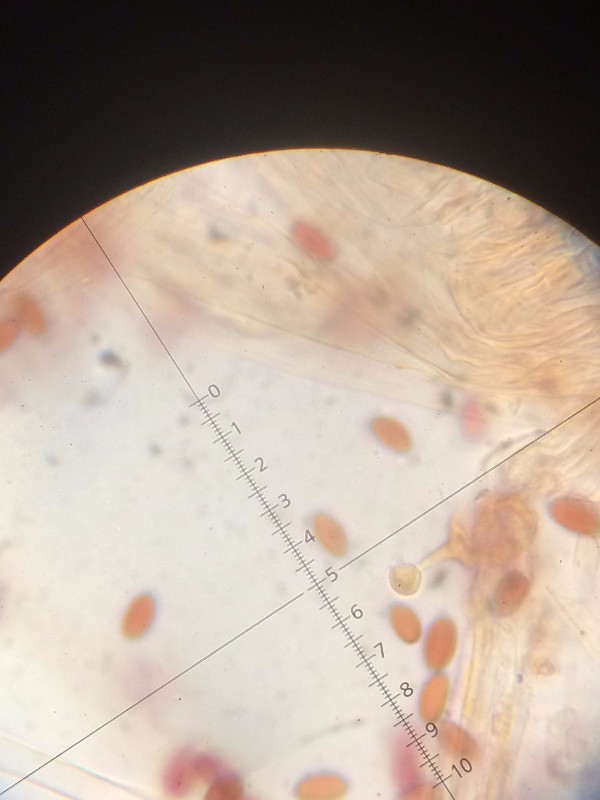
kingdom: Fungi
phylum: Basidiomycota
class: Agaricomycetes
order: Agaricales
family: Bolbitiaceae
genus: Conocybe
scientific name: Conocybe subovalis
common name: hvælvet keglehat
